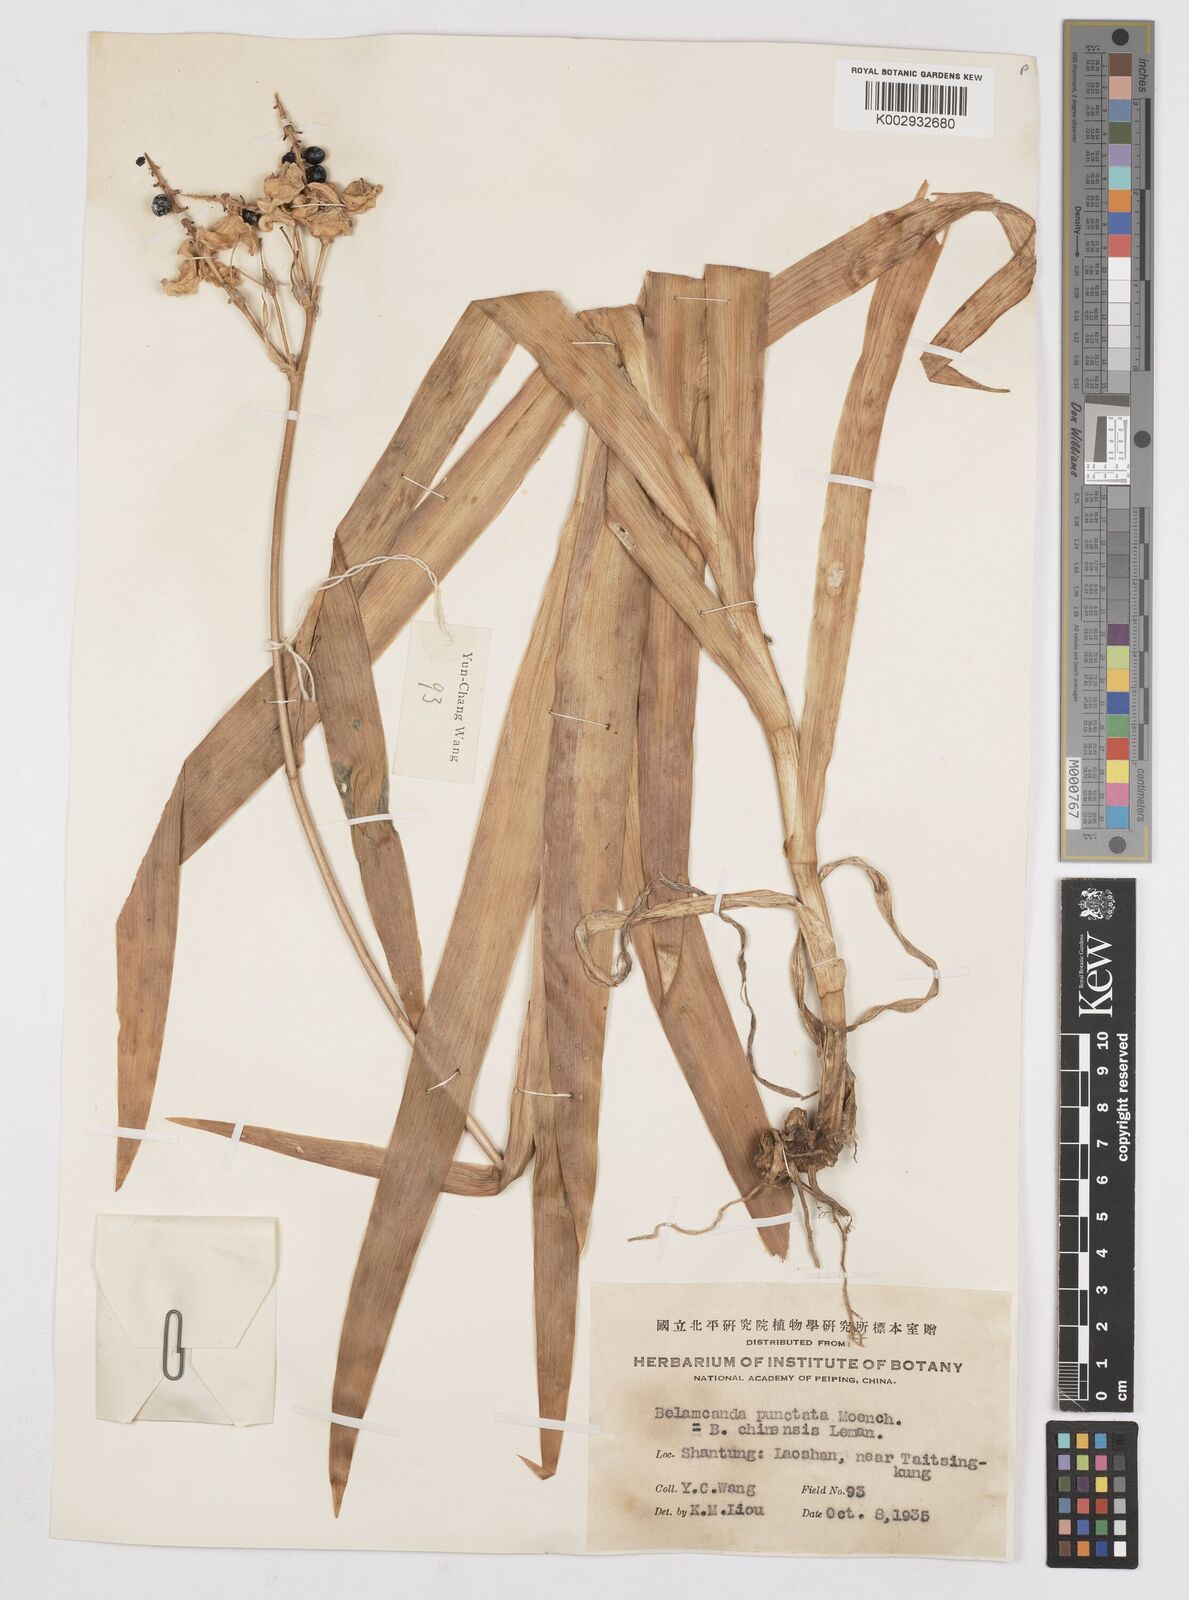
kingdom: Plantae
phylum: Tracheophyta
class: Liliopsida
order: Asparagales
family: Iridaceae
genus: Iris
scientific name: Iris
